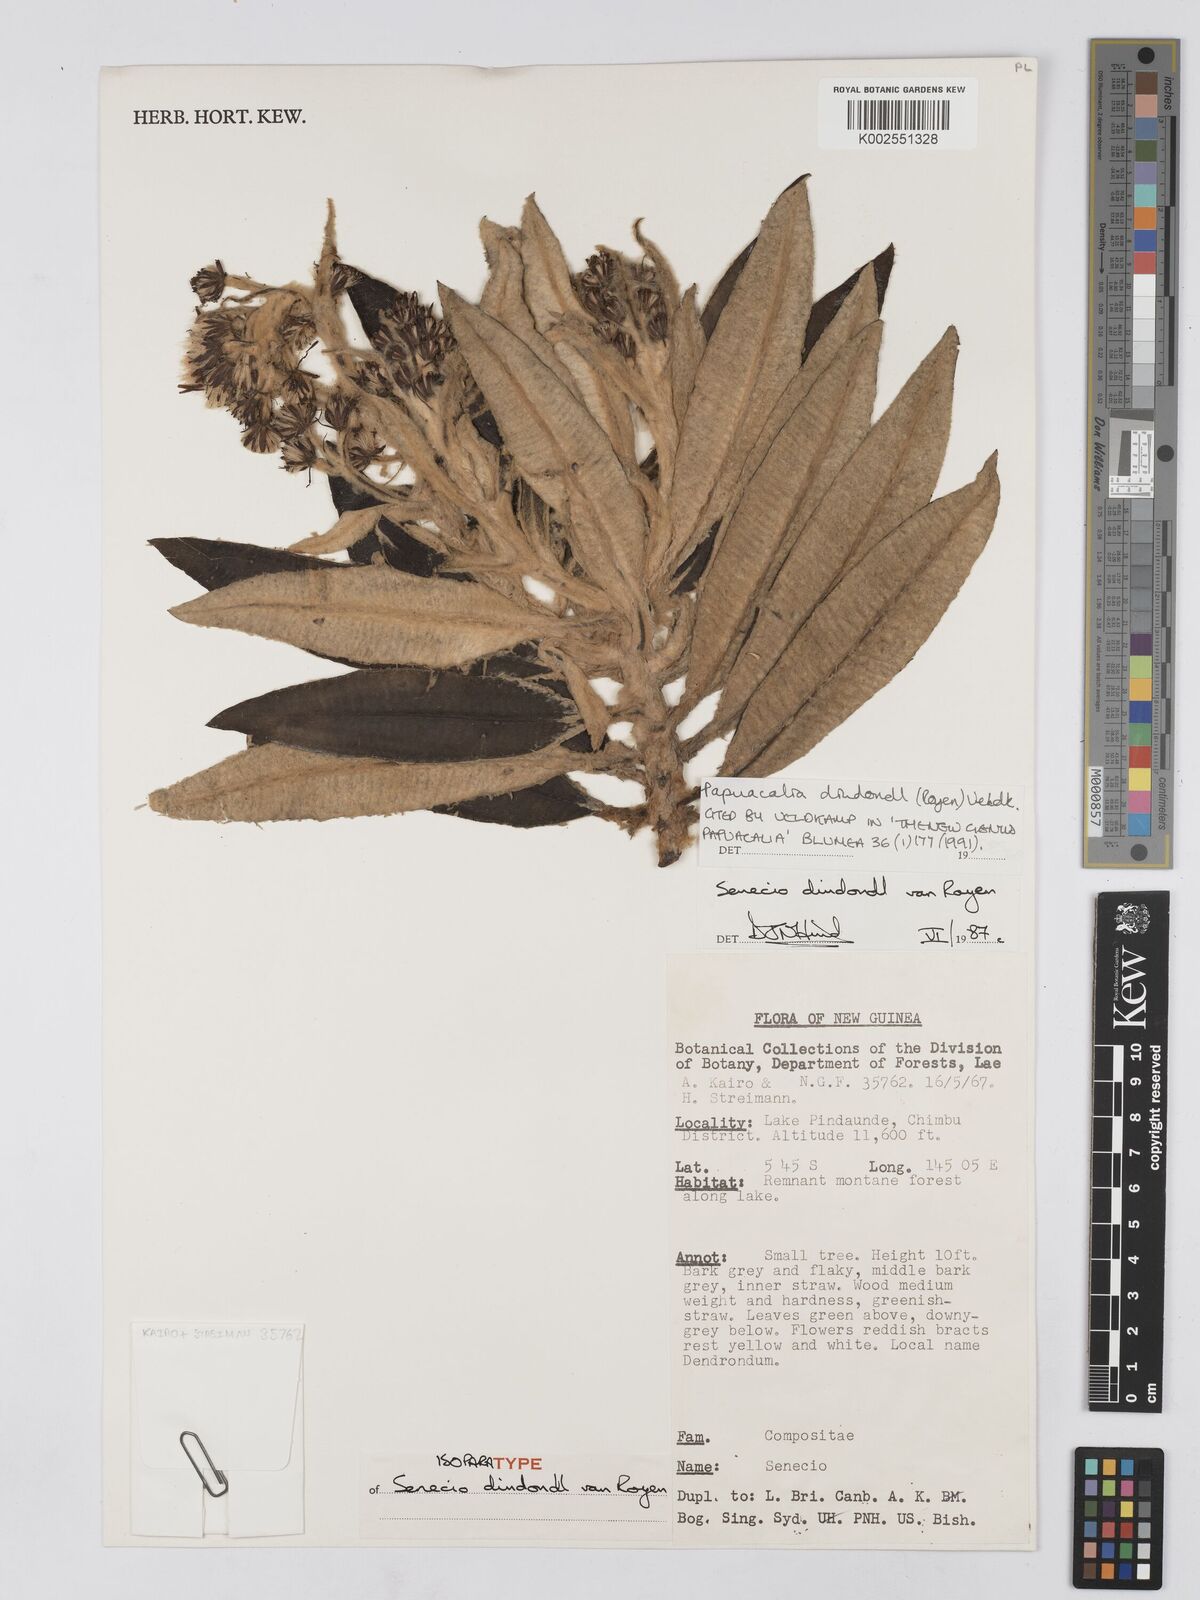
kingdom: Plantae
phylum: Tracheophyta
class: Magnoliopsida
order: Asterales
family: Asteraceae
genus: Papuacalia
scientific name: Papuacalia dindondl
